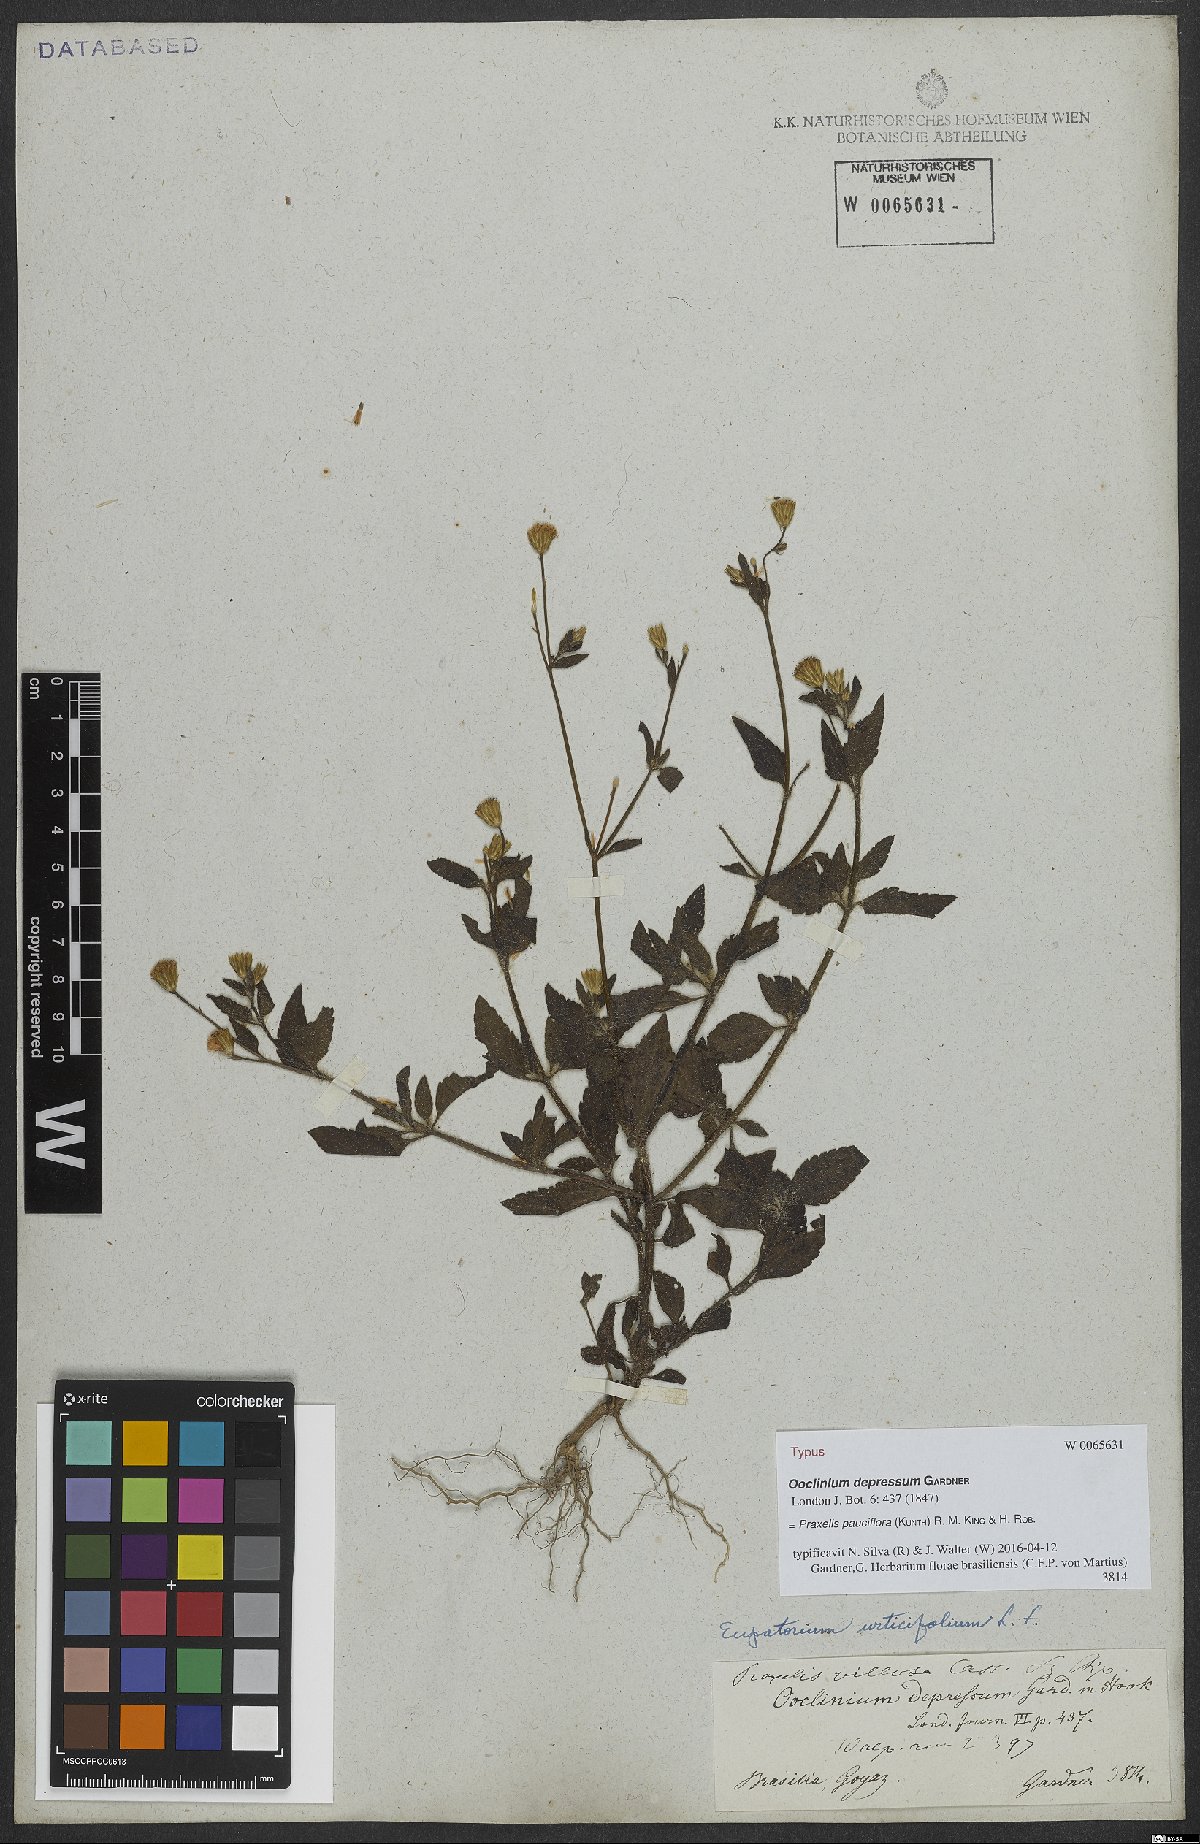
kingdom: Plantae
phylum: Tracheophyta
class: Magnoliopsida
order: Asterales
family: Asteraceae
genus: Praxelis
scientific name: Praxelis diffusa
